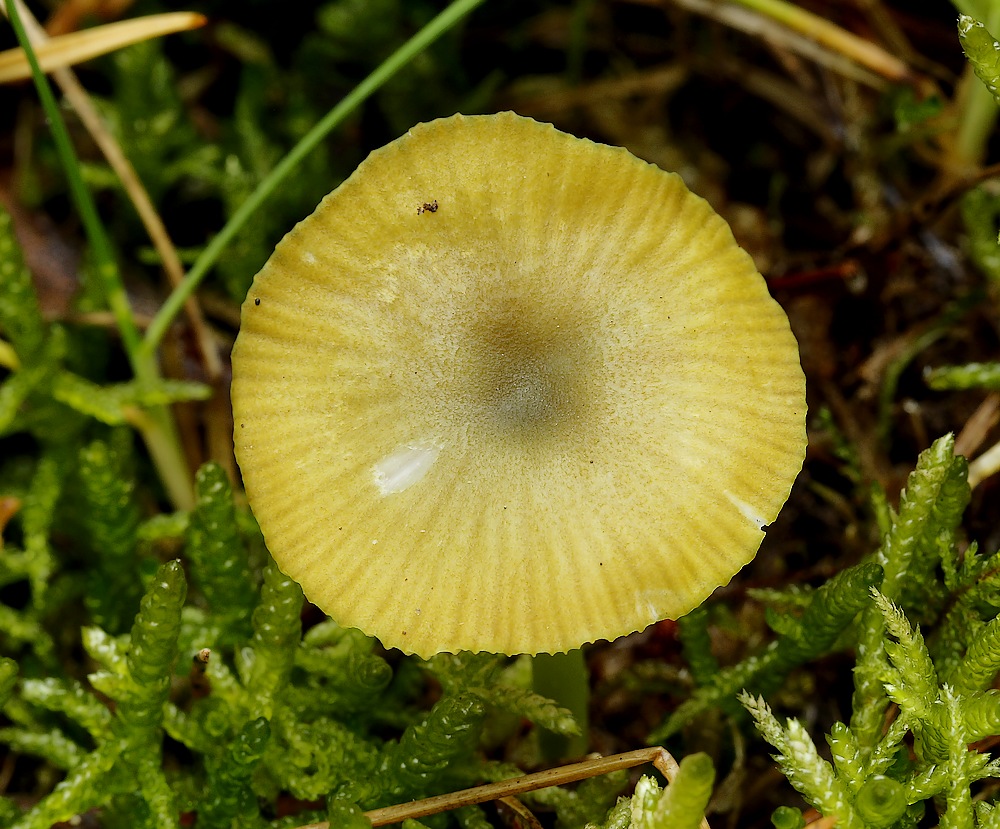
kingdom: Fungi
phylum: Basidiomycota
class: Agaricomycetes
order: Agaricales
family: Entolomataceae
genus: Entoloma
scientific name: Entoloma incanum
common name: grøngul rødblad
